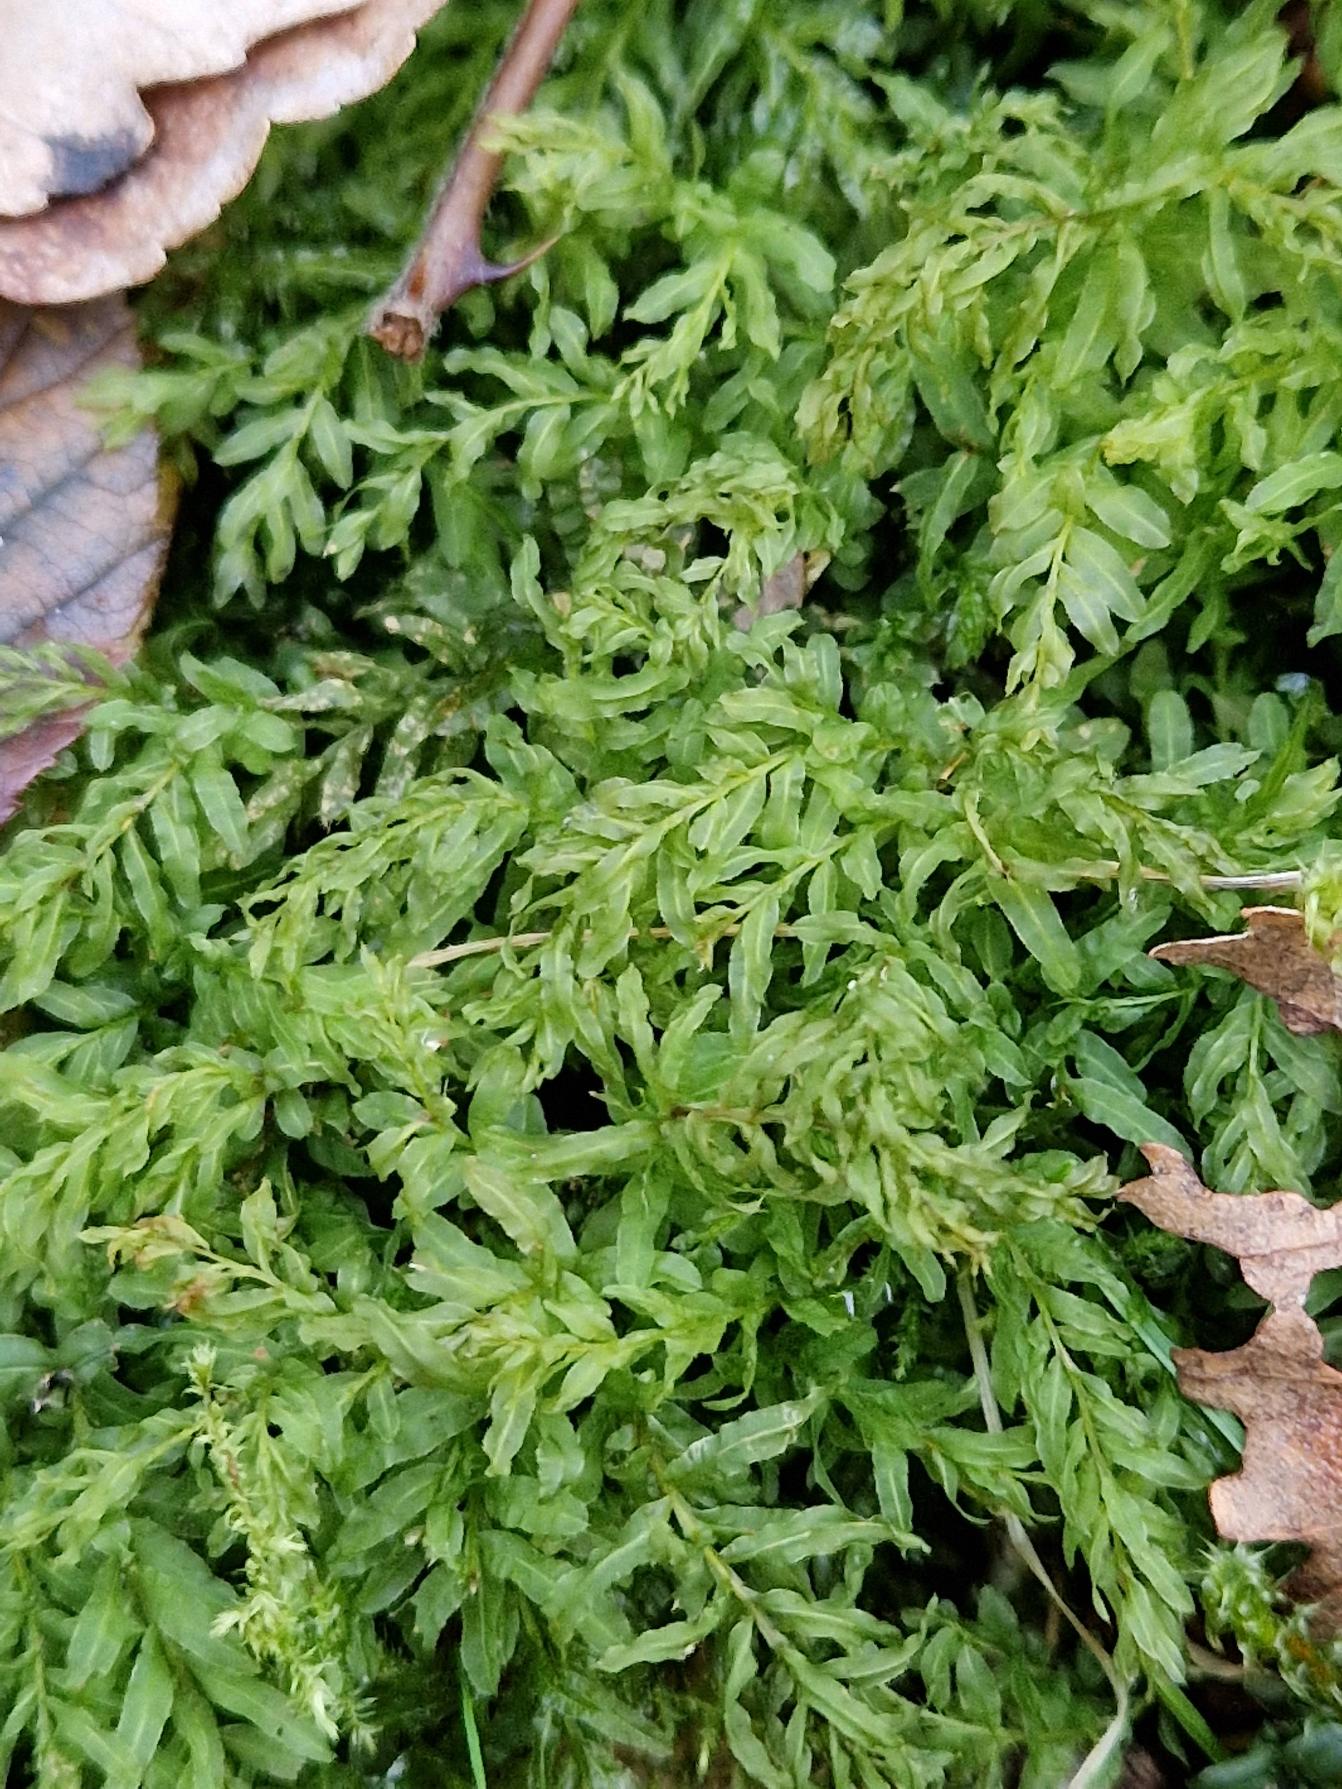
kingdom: Plantae
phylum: Bryophyta
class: Bryopsida
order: Bryales
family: Mniaceae
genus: Plagiomnium
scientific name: Plagiomnium undulatum
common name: Bølget krybstjerne
